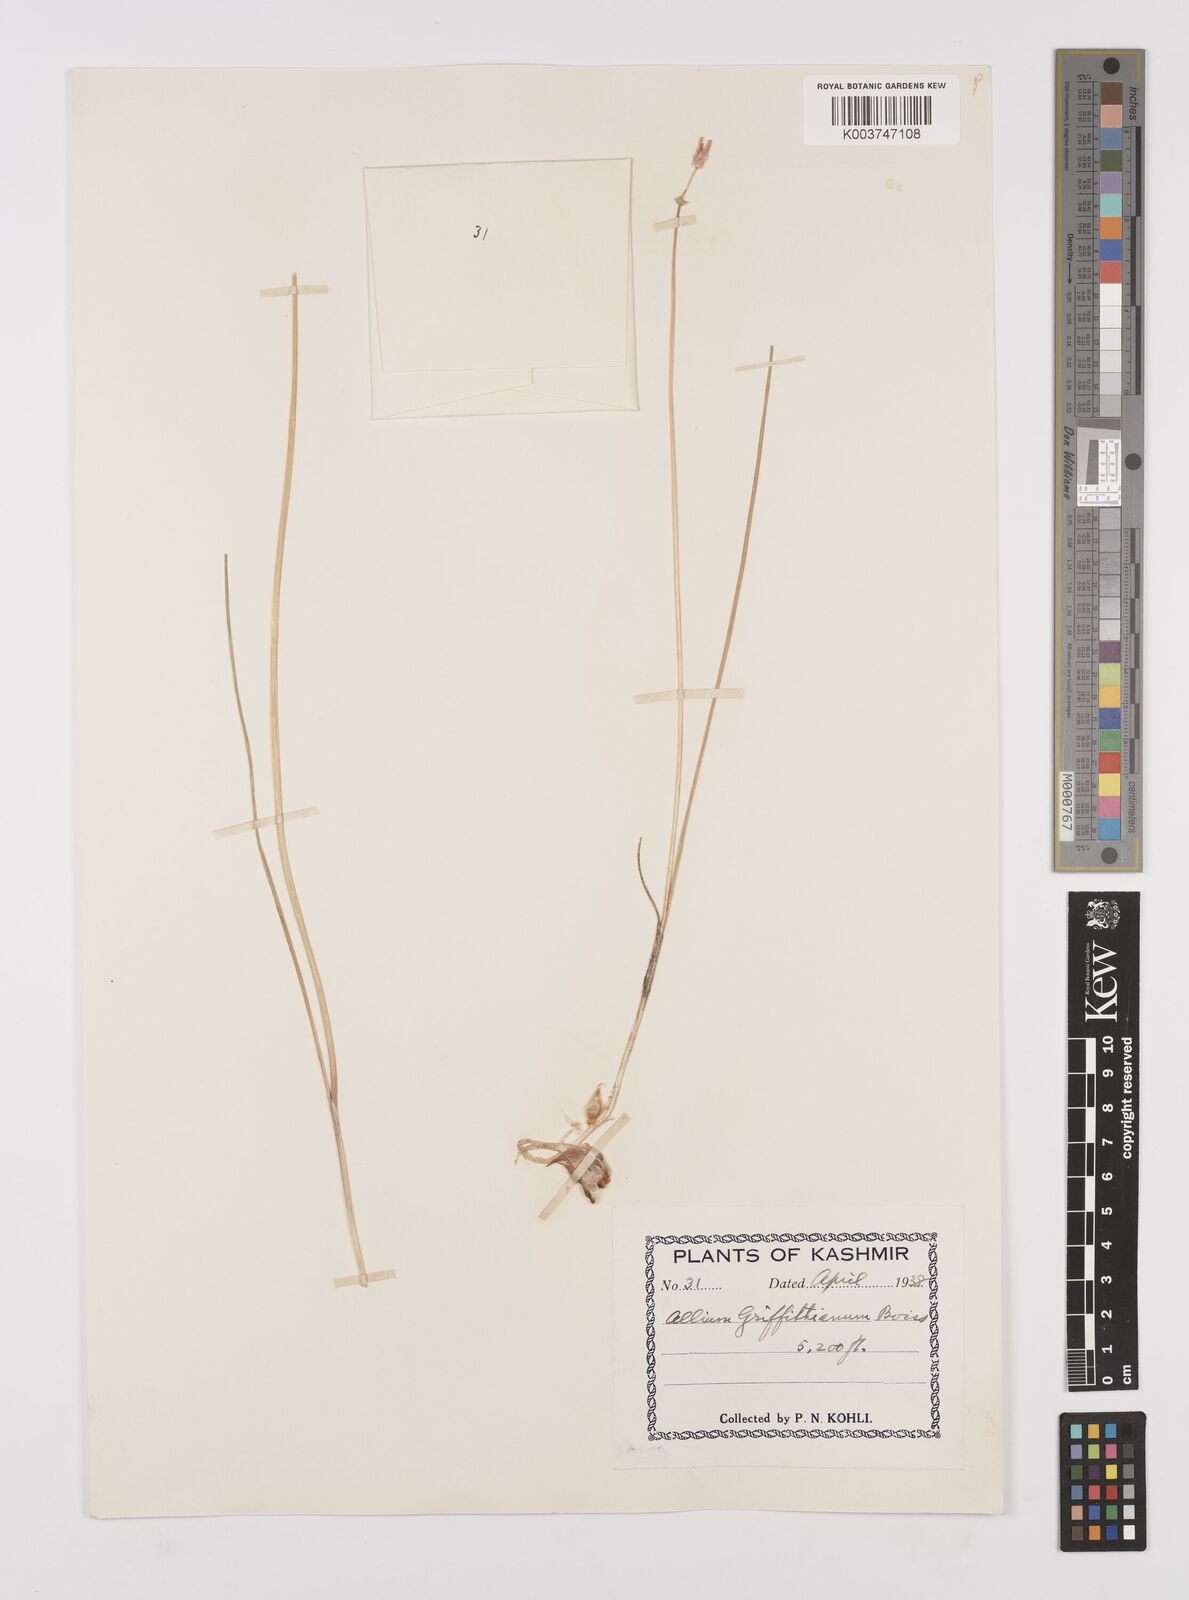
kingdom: Plantae
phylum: Tracheophyta
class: Liliopsida
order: Asparagales
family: Amaryllidaceae
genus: Allium
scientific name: Allium griffithianum
